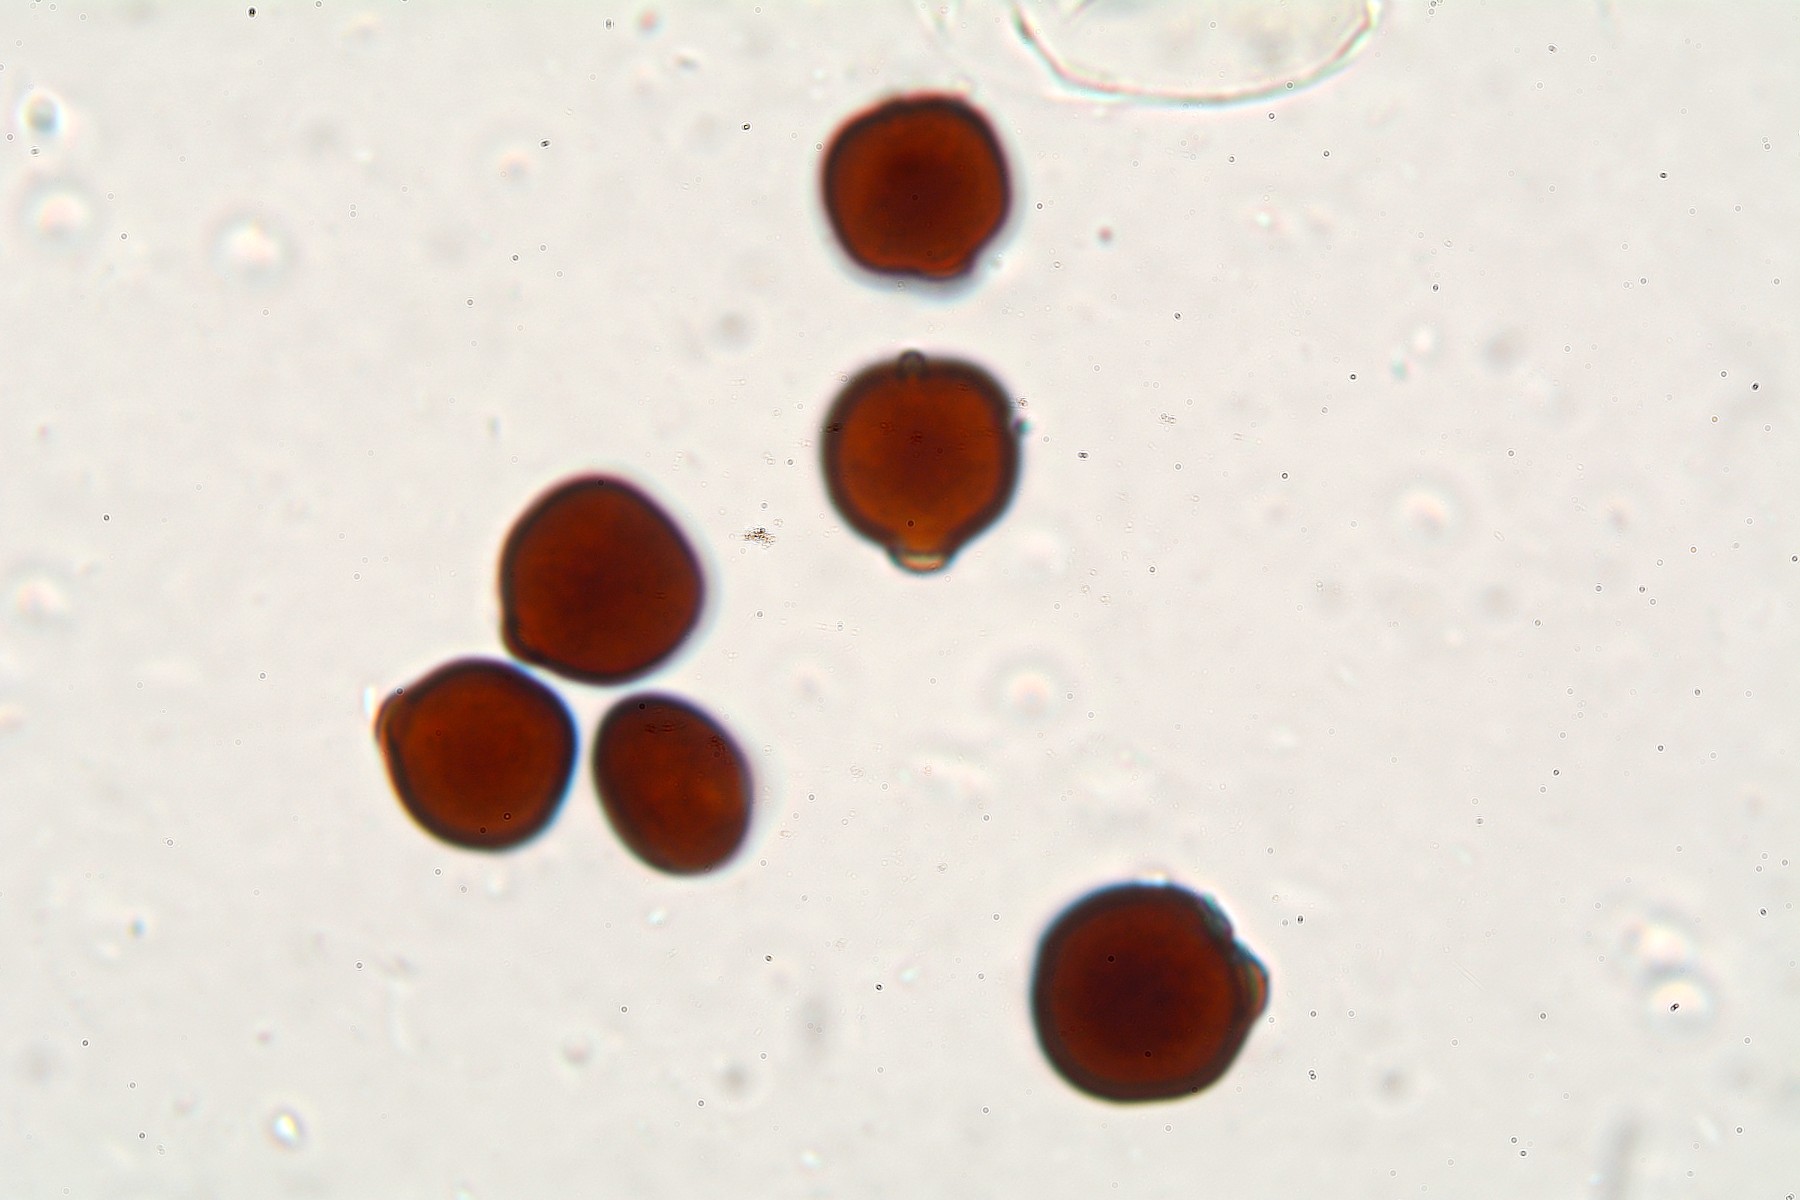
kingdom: Fungi
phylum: Basidiomycota
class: Agaricomycetes
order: Agaricales
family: Psathyrellaceae
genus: Narcissea
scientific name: Narcissea ephemeroides
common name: ring-blækhat
